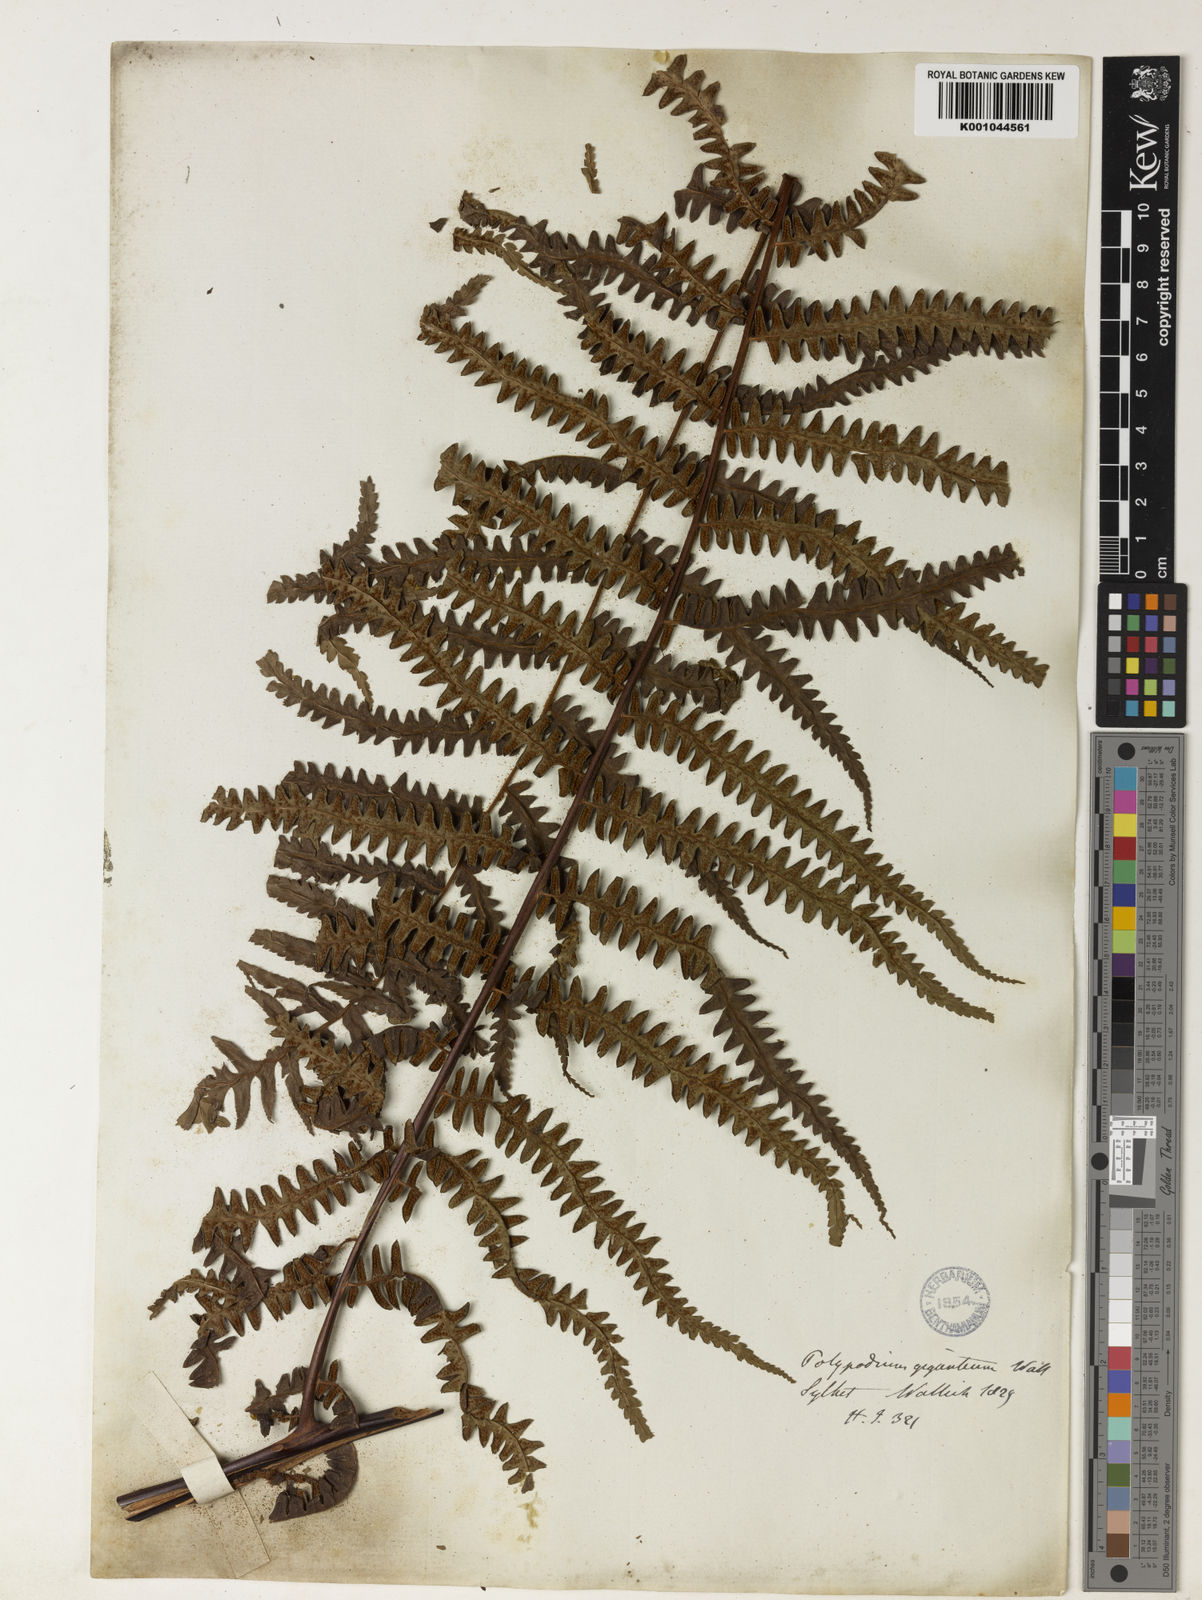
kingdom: Plantae
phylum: Tracheophyta
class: Polypodiopsida
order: Cyatheales
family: Cyatheaceae
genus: Gymnosphaera
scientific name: Gymnosphaera gigantea
